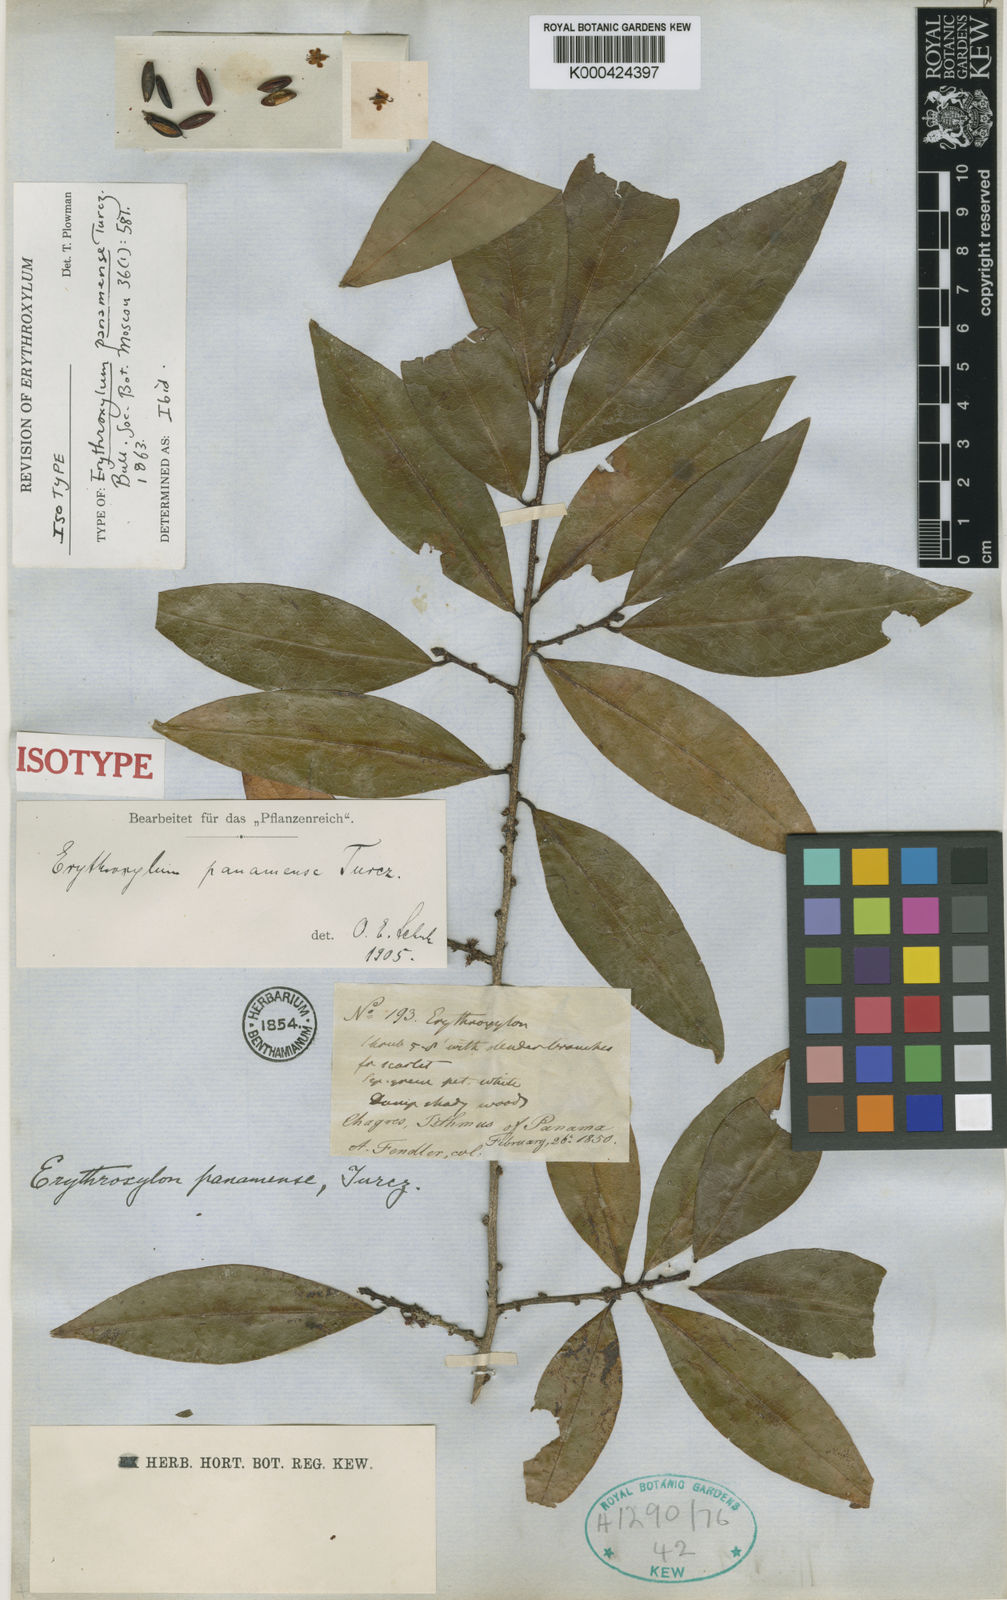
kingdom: Plantae
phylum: Tracheophyta
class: Magnoliopsida
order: Malpighiales
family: Erythroxylaceae
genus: Erythroxylum
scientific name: Erythroxylum panamense
